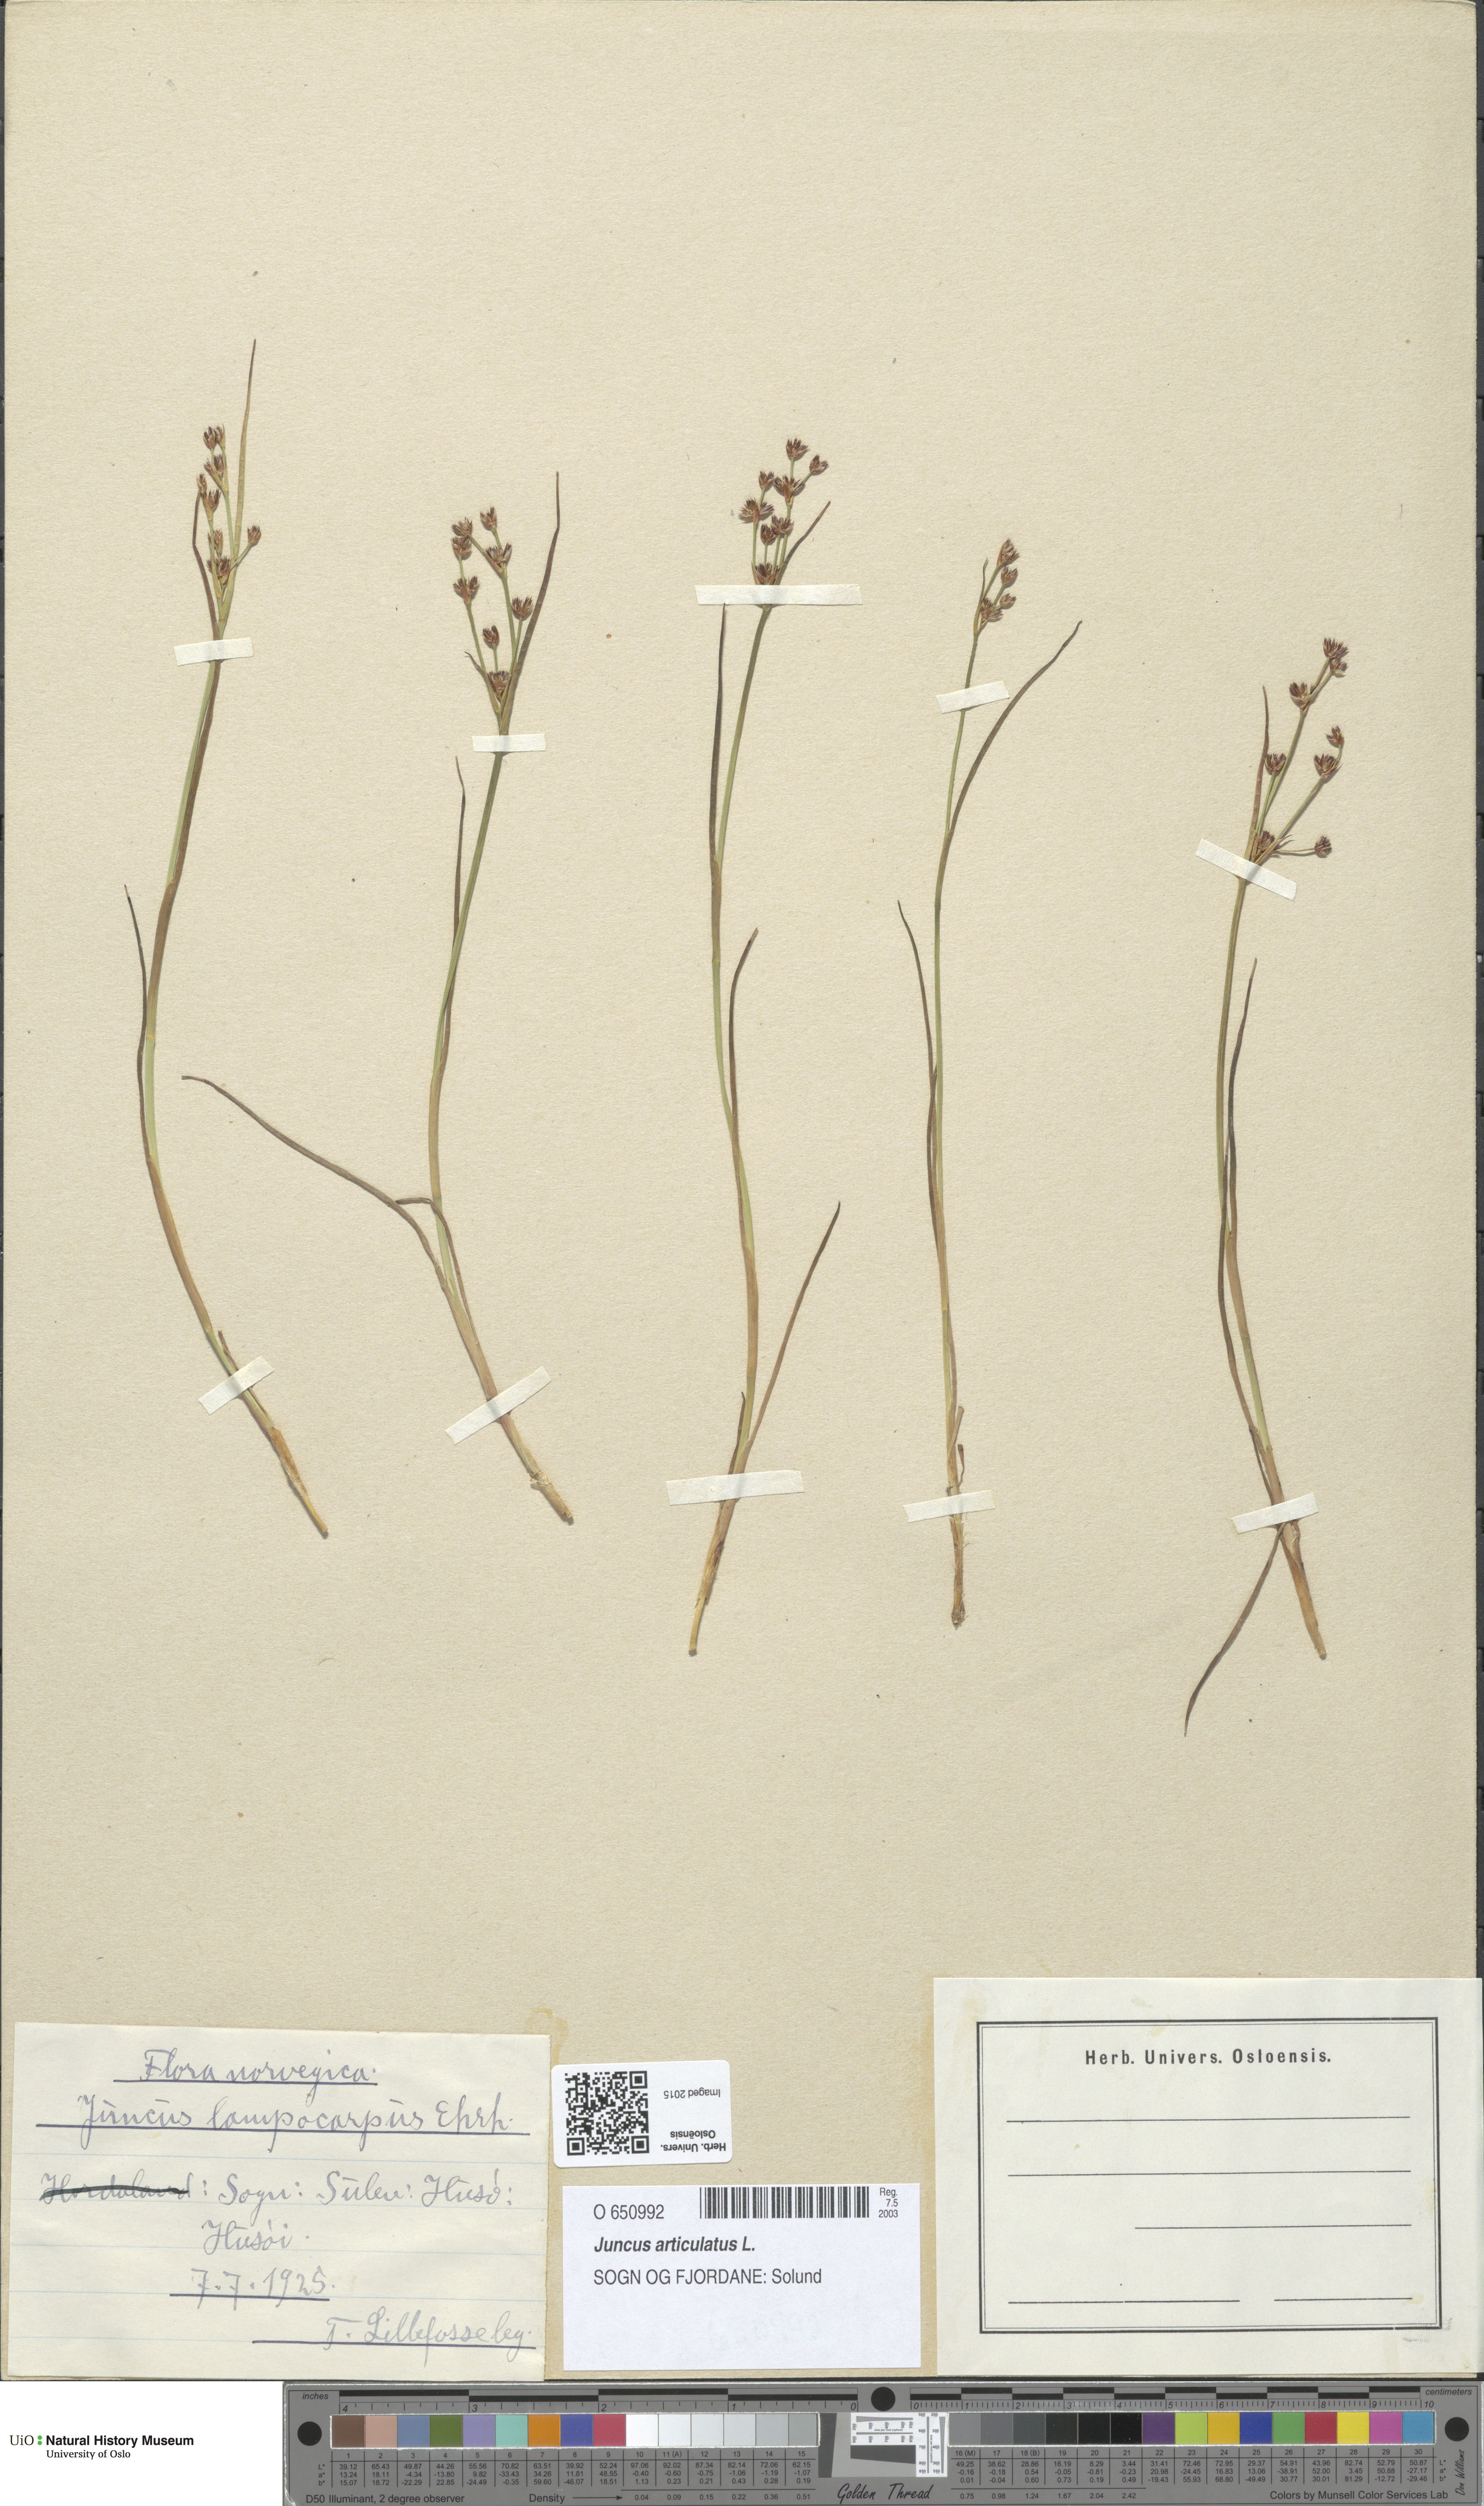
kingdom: Plantae
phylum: Tracheophyta
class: Liliopsida
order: Poales
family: Juncaceae
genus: Juncus
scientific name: Juncus articulatus
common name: Jointed rush
